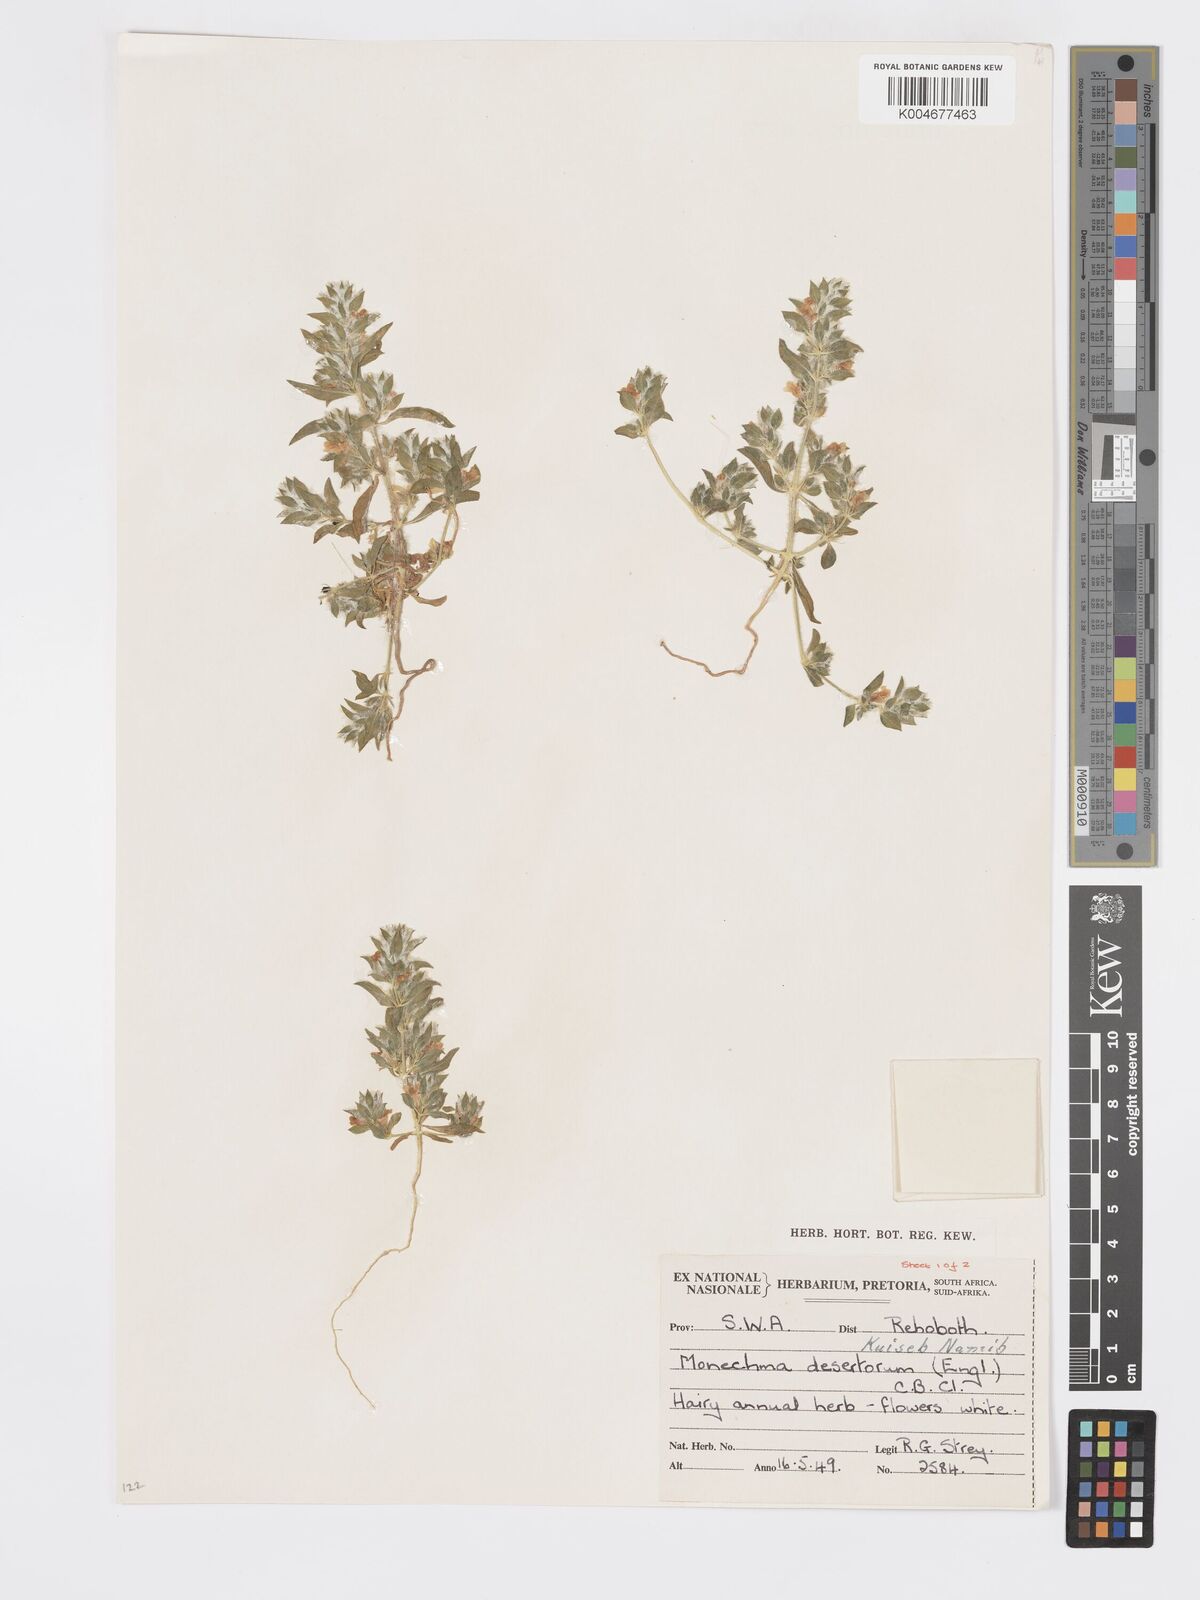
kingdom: Plantae
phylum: Tracheophyta
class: Magnoliopsida
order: Lamiales
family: Acanthaceae
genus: Pogonospermum
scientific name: Pogonospermum
